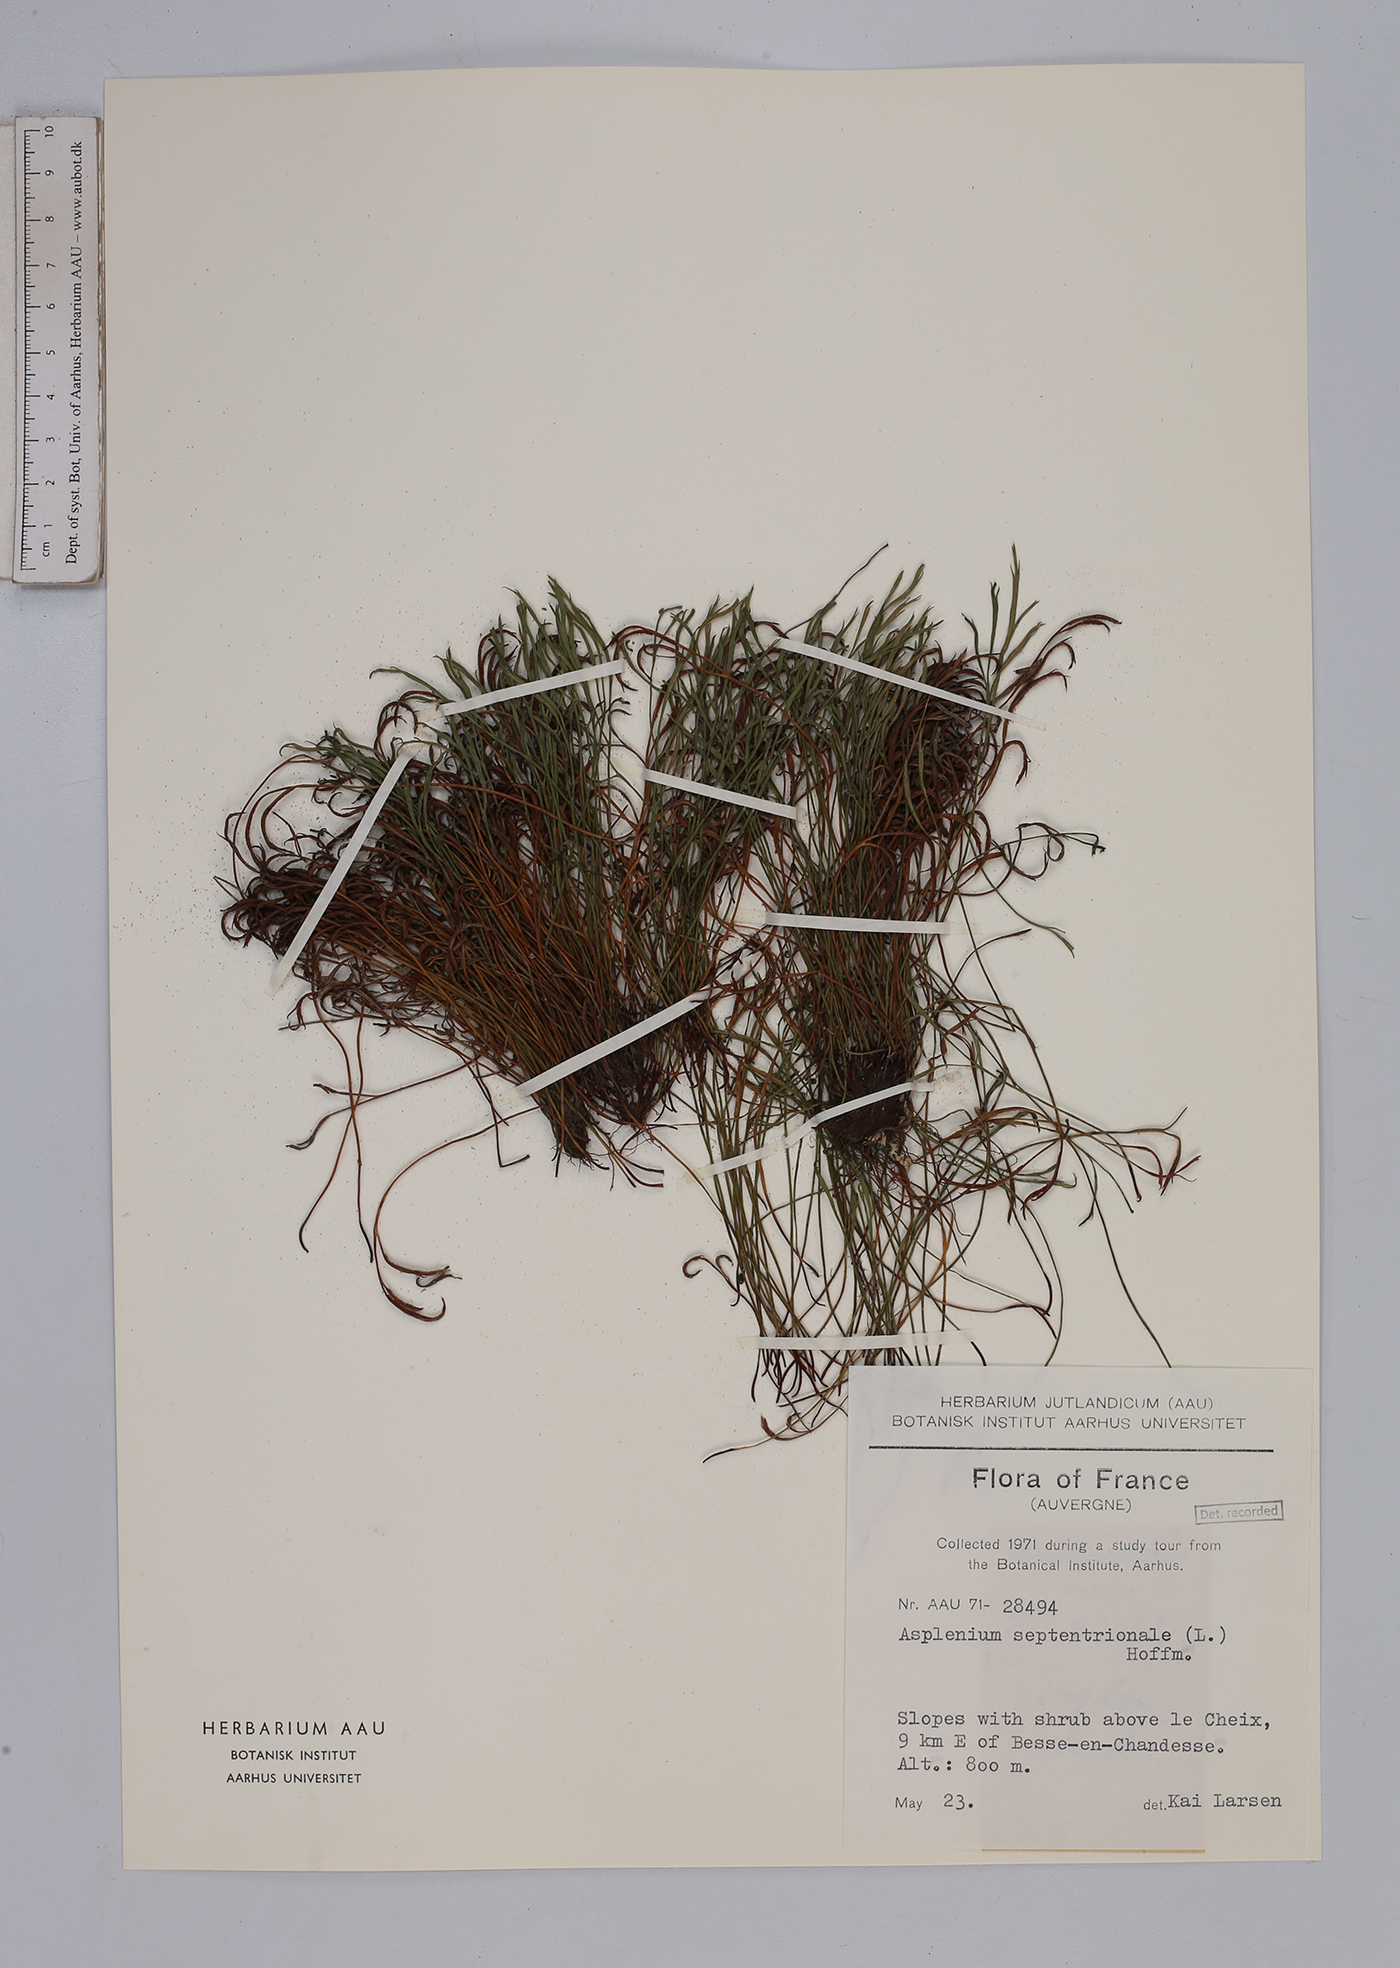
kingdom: Plantae
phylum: Tracheophyta
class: Polypodiopsida
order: Polypodiales
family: Aspleniaceae
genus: Asplenium
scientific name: Asplenium septentrionale
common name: Forked spleenwort
